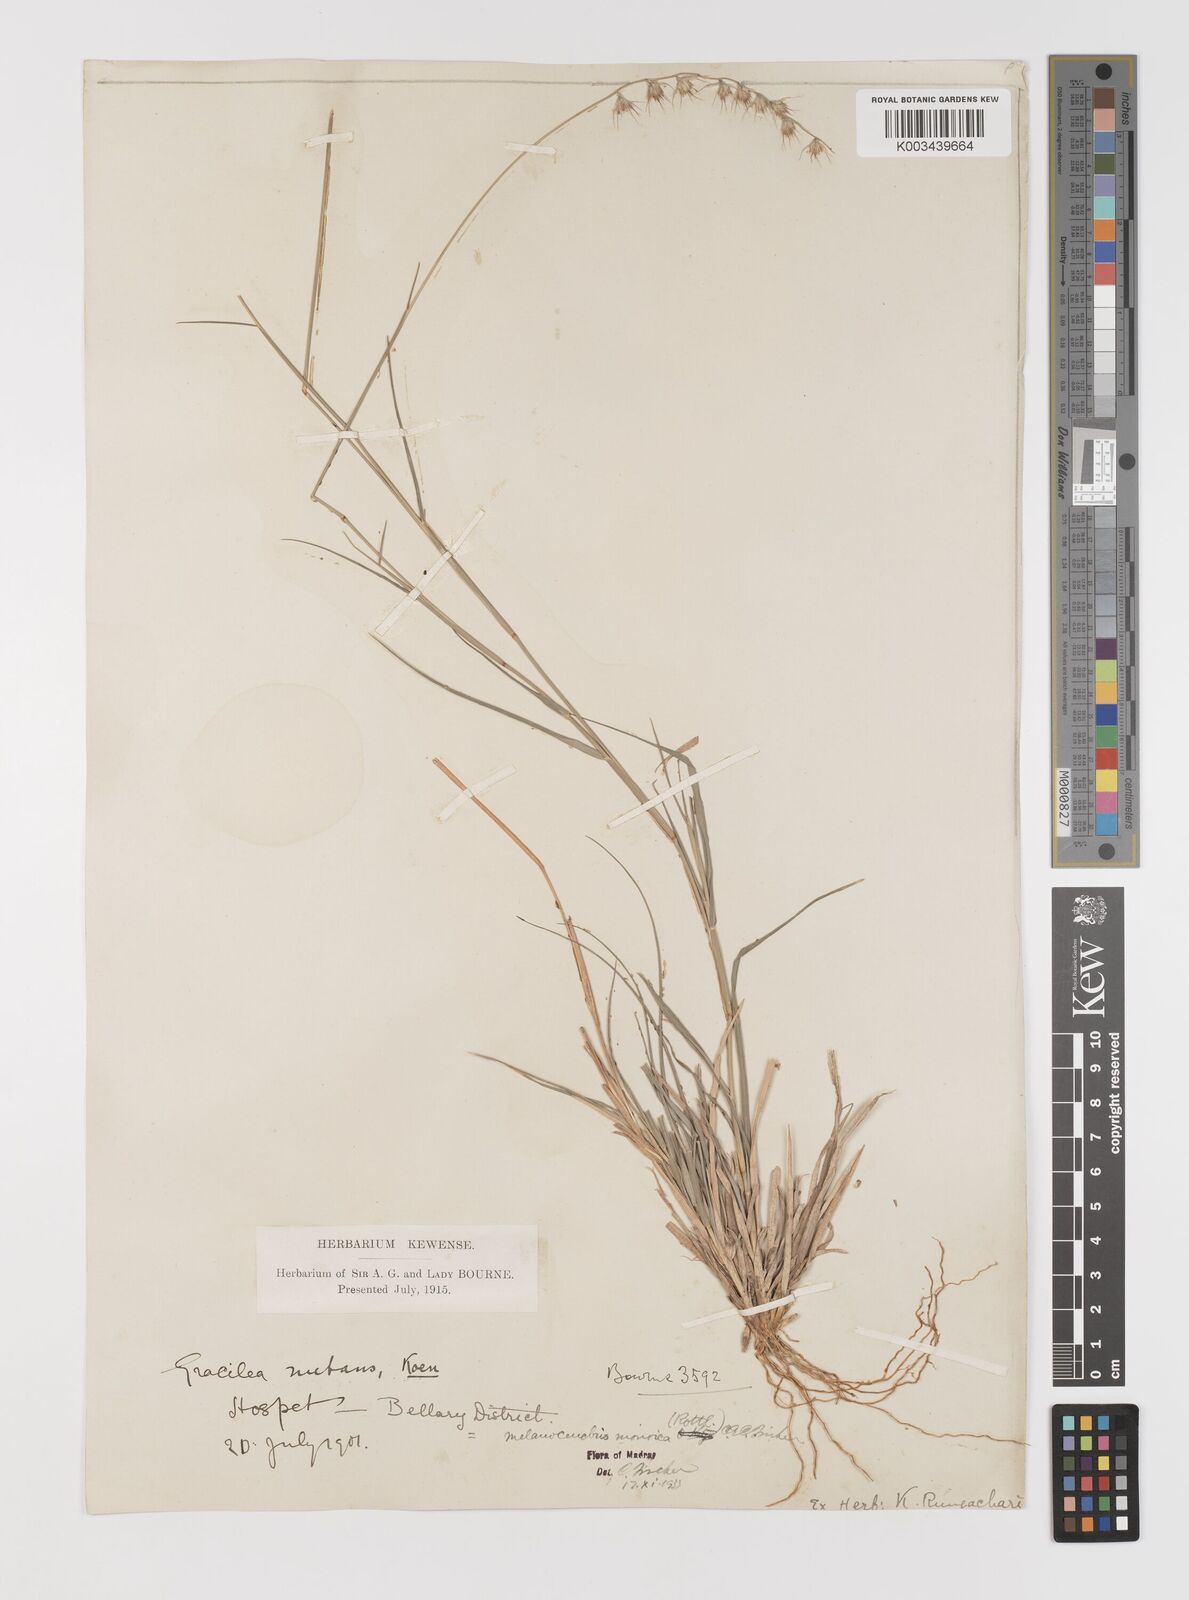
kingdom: Plantae
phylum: Tracheophyta
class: Liliopsida
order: Poales
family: Poaceae
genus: Melanocenchris
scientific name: Melanocenchris rothiana
